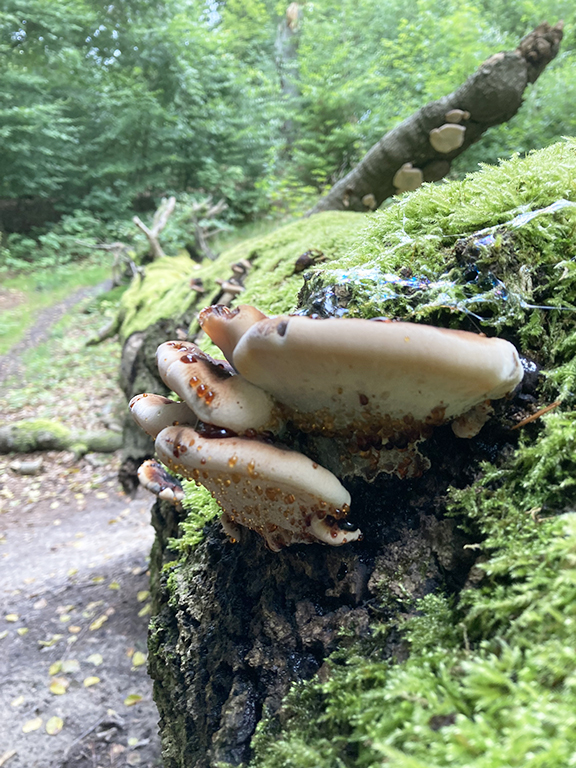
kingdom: Fungi
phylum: Basidiomycota
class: Agaricomycetes
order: Polyporales
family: Ischnodermataceae
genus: Ischnoderma
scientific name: Ischnoderma resinosum
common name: løv-tjæreporesvamp
